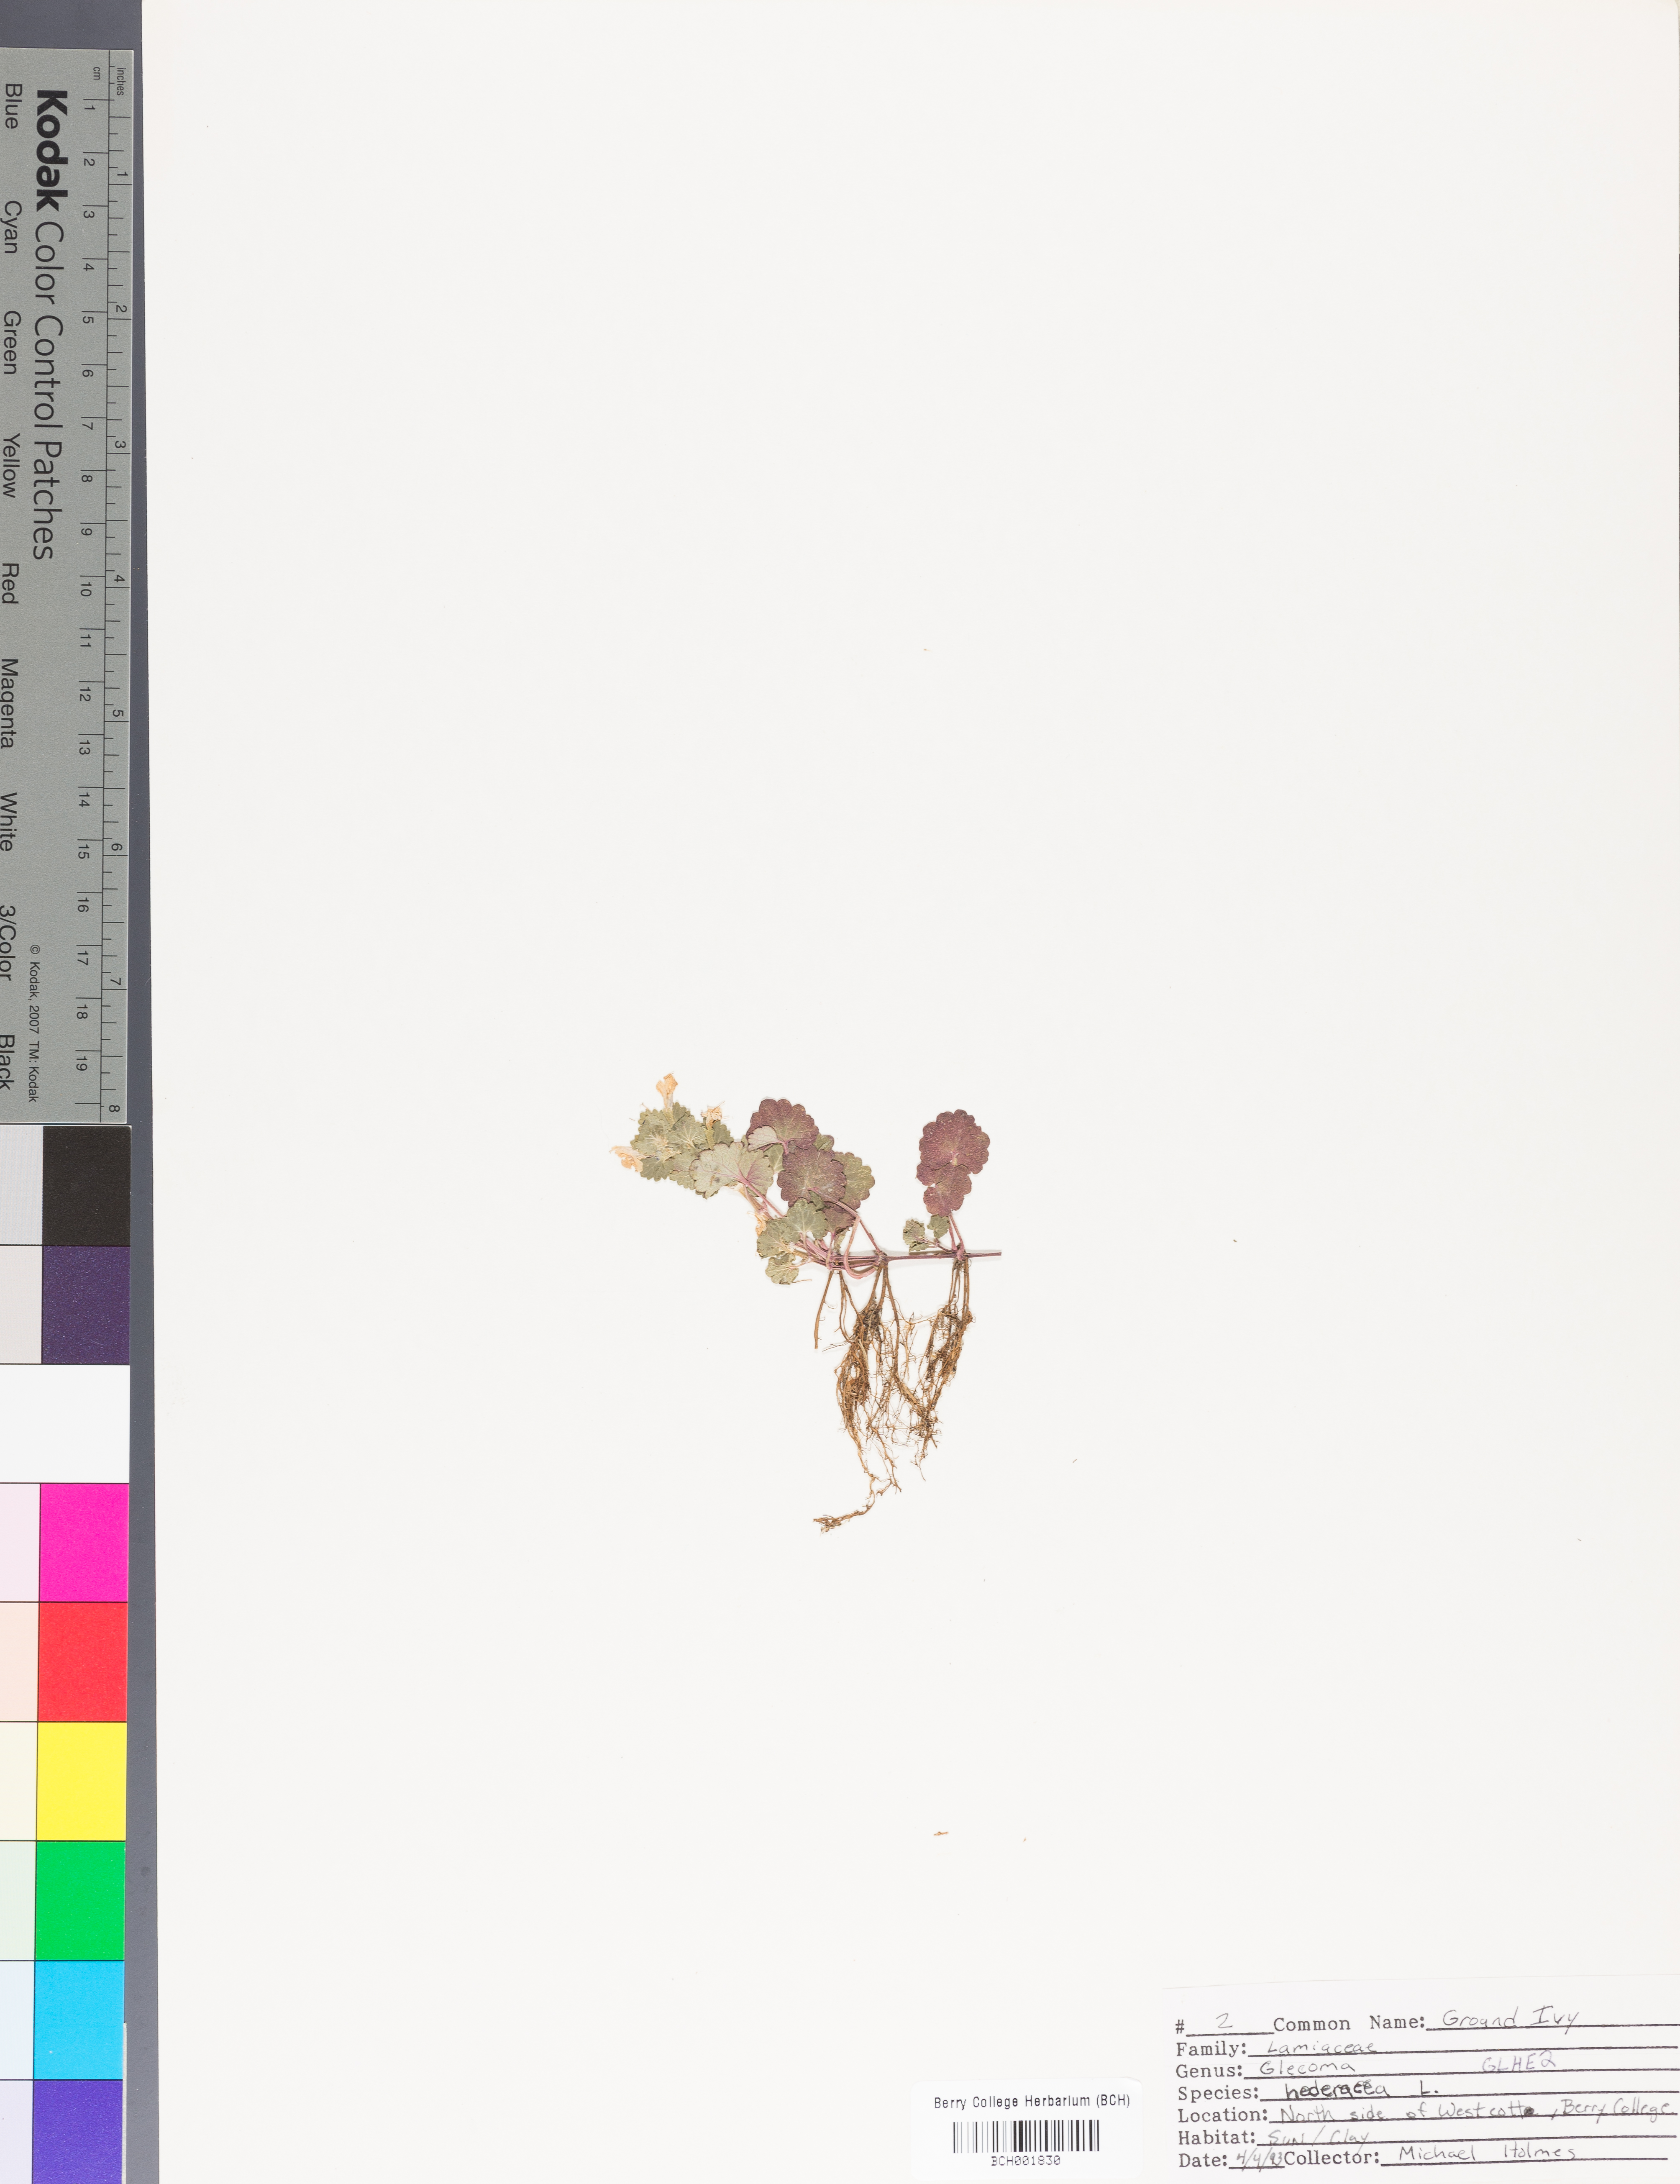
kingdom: Plantae
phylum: Tracheophyta
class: Magnoliopsida
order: Lamiales
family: Lamiaceae
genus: Glechoma
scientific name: Glechoma hederacea
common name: Ground ivy
